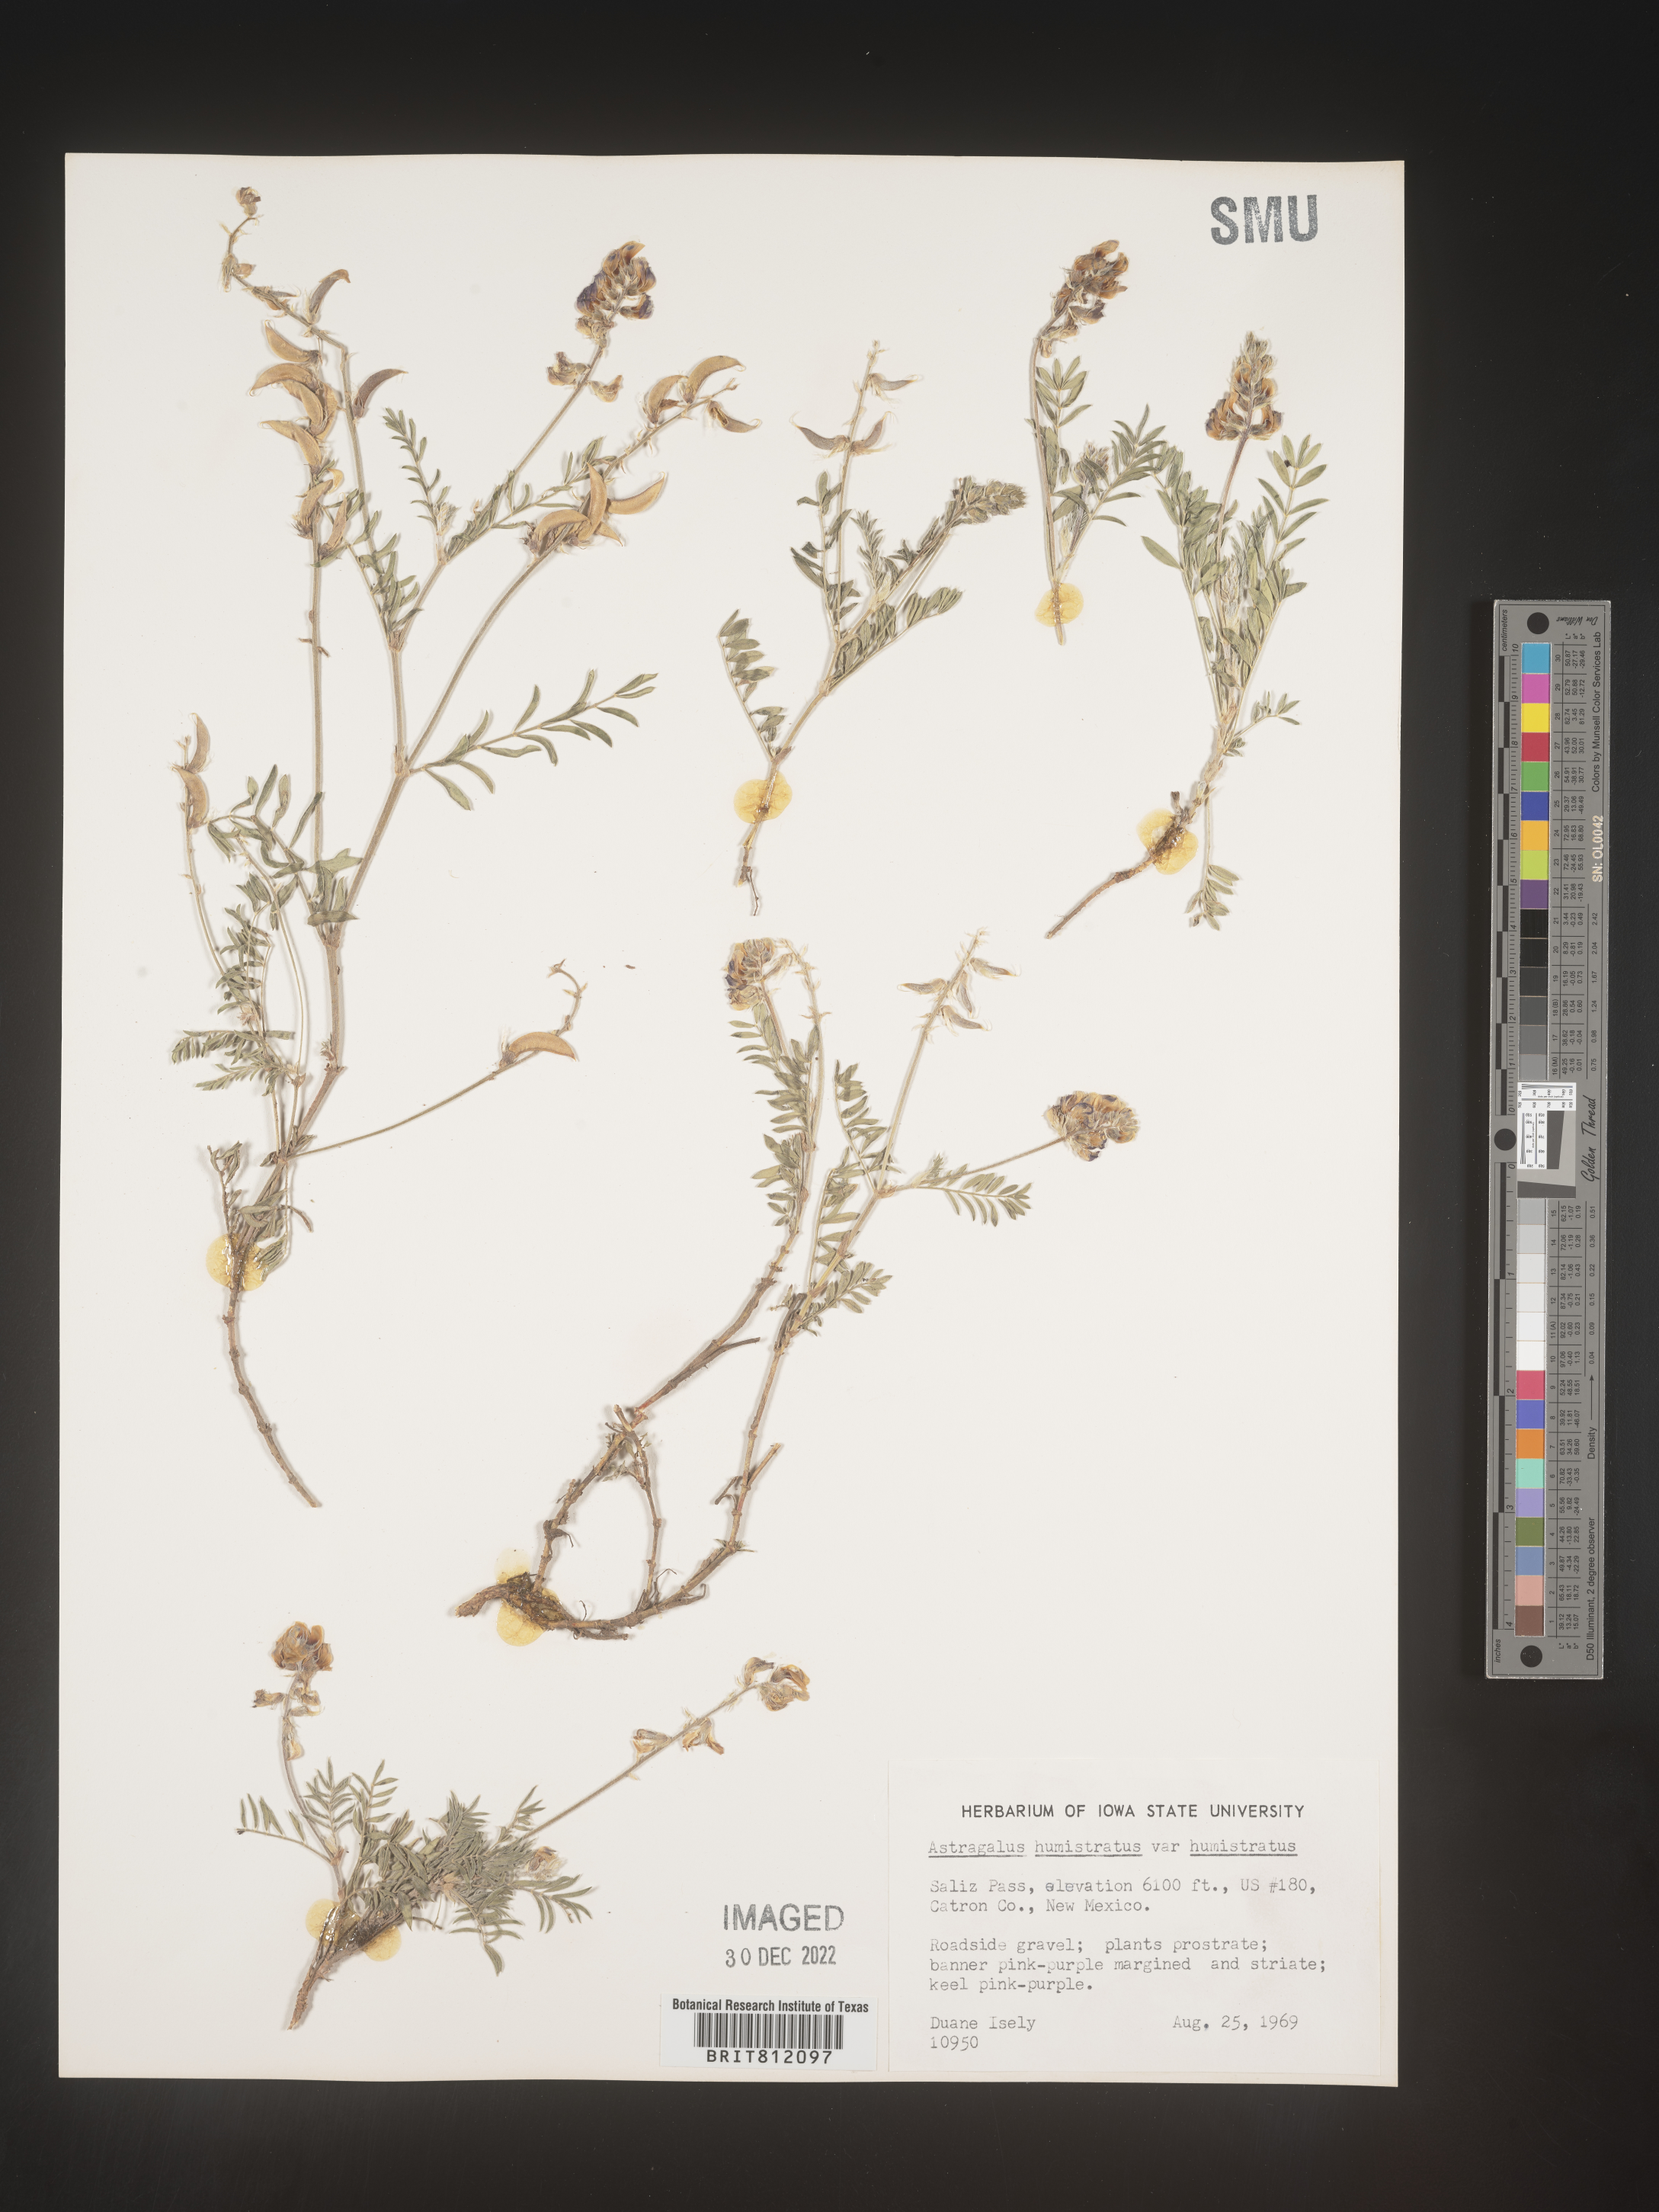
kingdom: Plantae
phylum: Tracheophyta
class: Magnoliopsida
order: Fabales
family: Fabaceae
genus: Astragalus
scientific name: Astragalus
